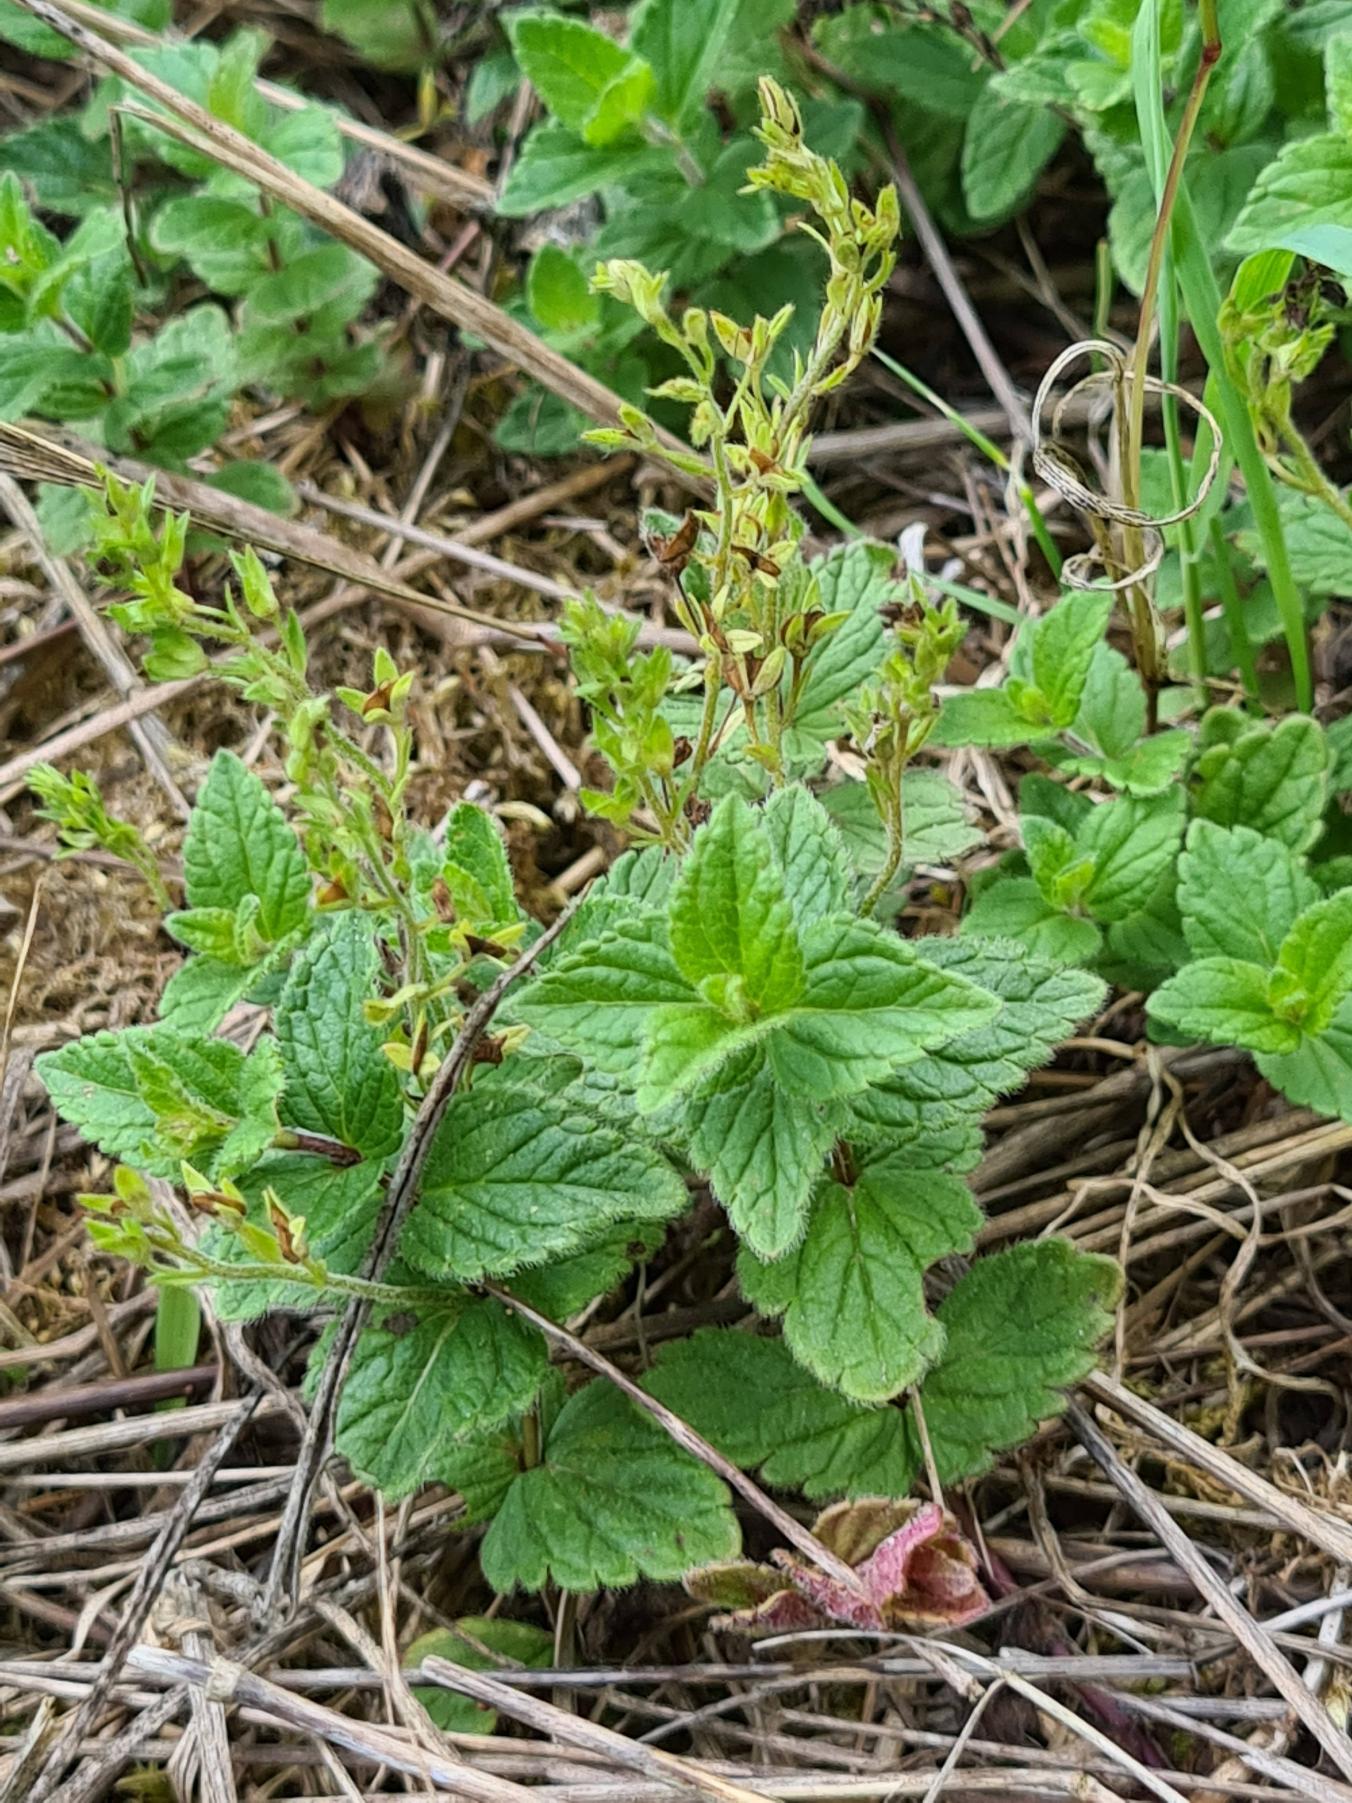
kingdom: Plantae
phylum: Tracheophyta
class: Magnoliopsida
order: Lamiales
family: Plantaginaceae
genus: Veronica
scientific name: Veronica chamaedrys
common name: Tveskægget ærenpris
